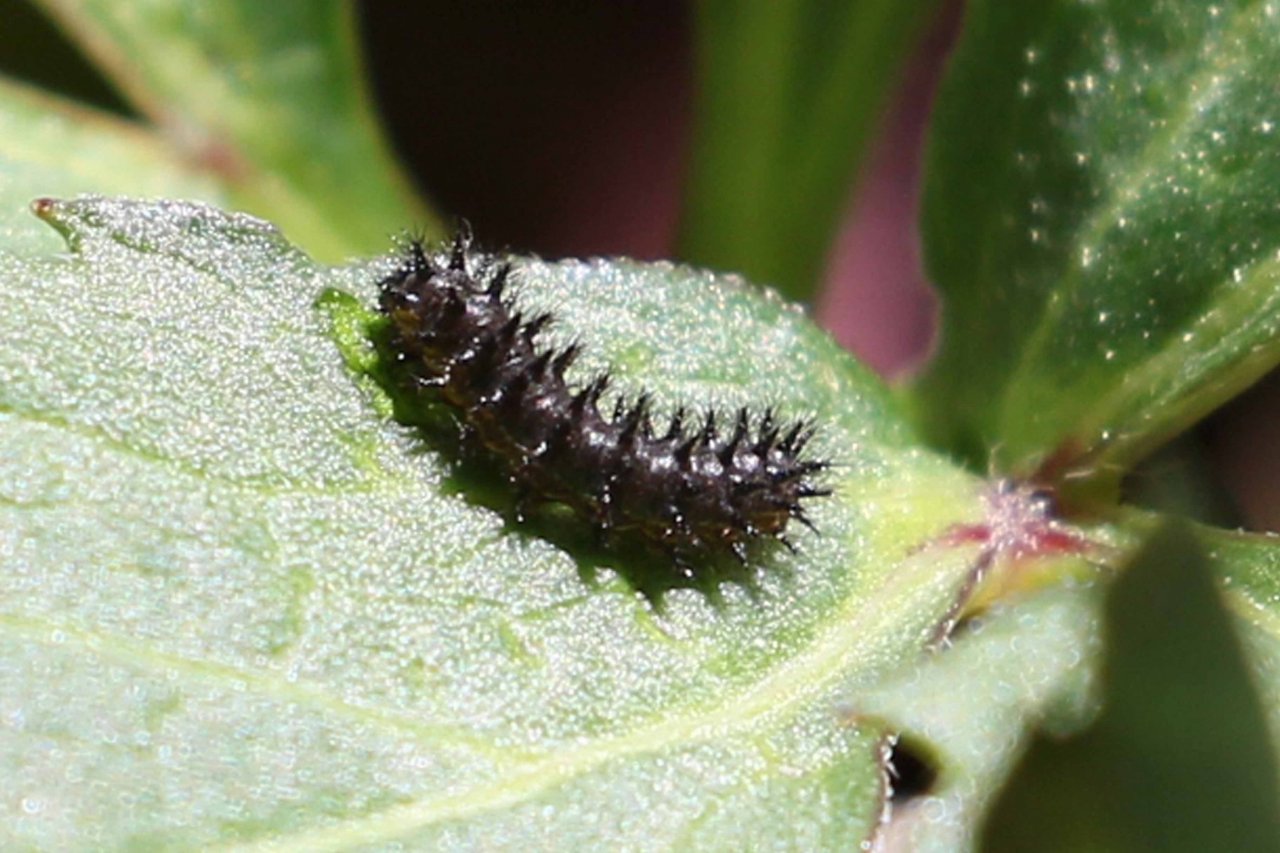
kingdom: Animalia
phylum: Arthropoda
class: Insecta
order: Lepidoptera
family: Nymphalidae
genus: Chlosyne
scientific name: Chlosyne nycteis
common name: Silvery Checkerspot
